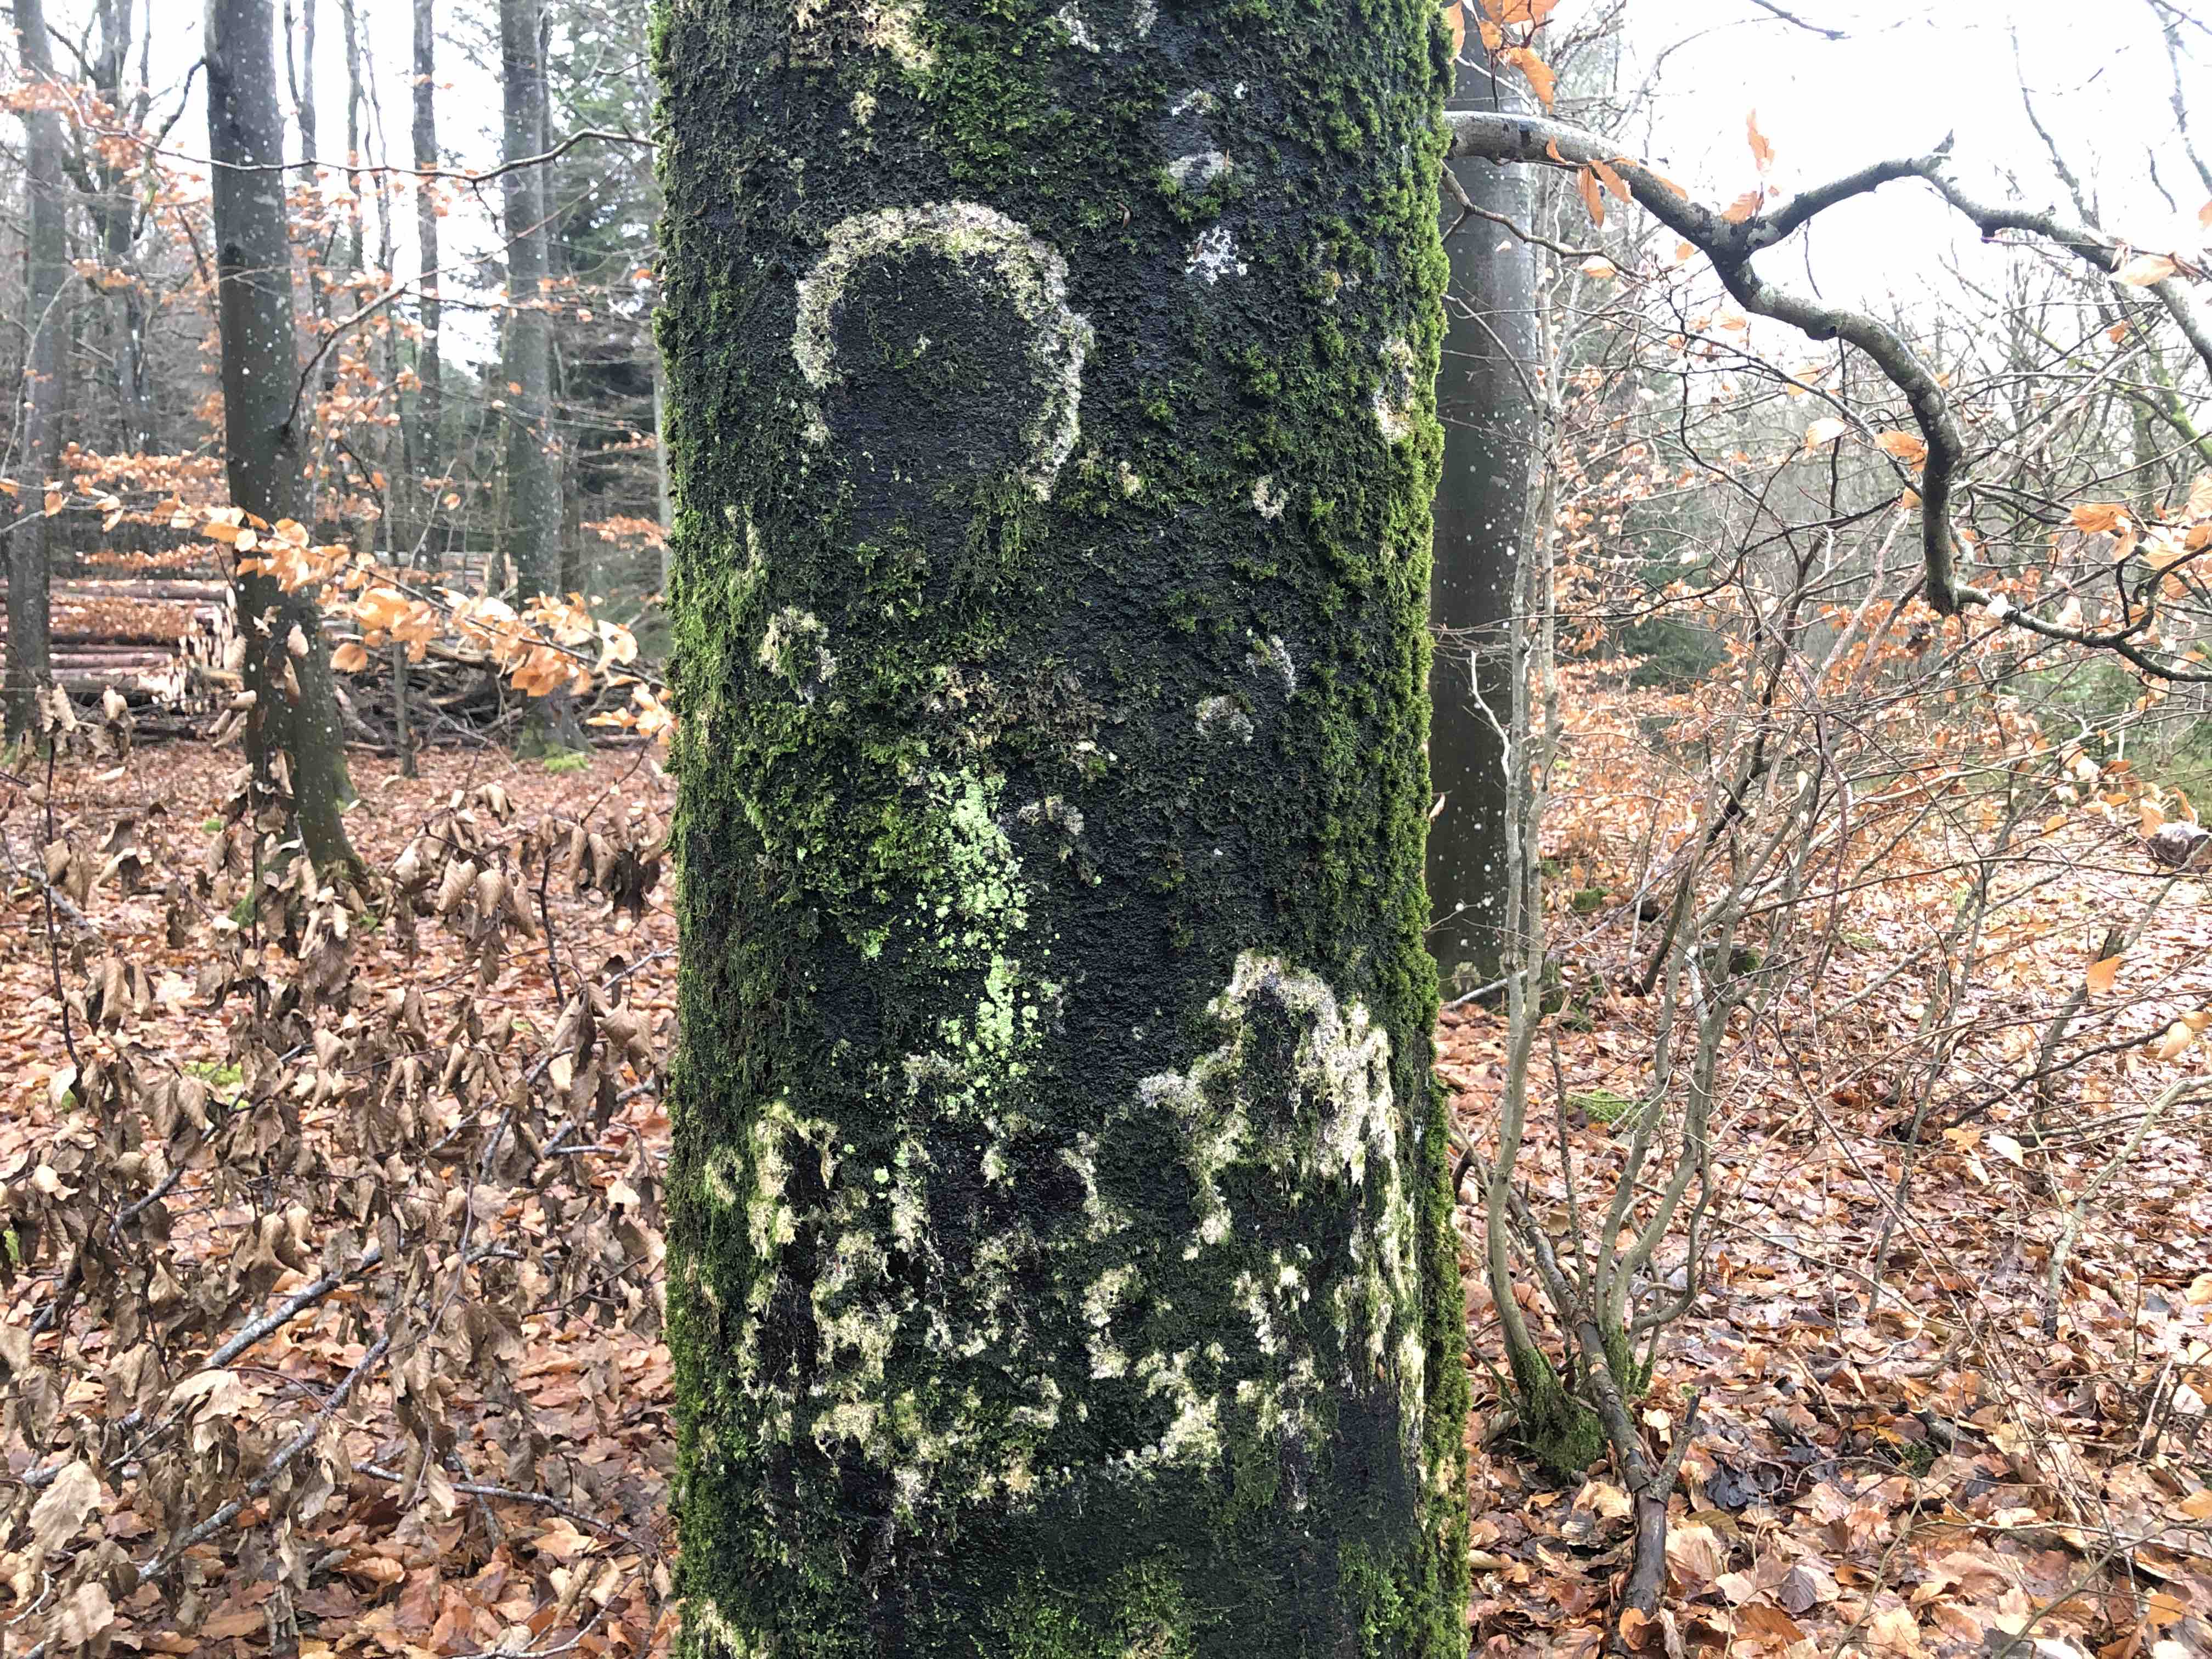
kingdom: Fungi
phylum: Basidiomycota
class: Agaricomycetes
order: Agaricales
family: Chromocyphellaceae
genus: Chromocyphella
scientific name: Chromocyphella muscicola
